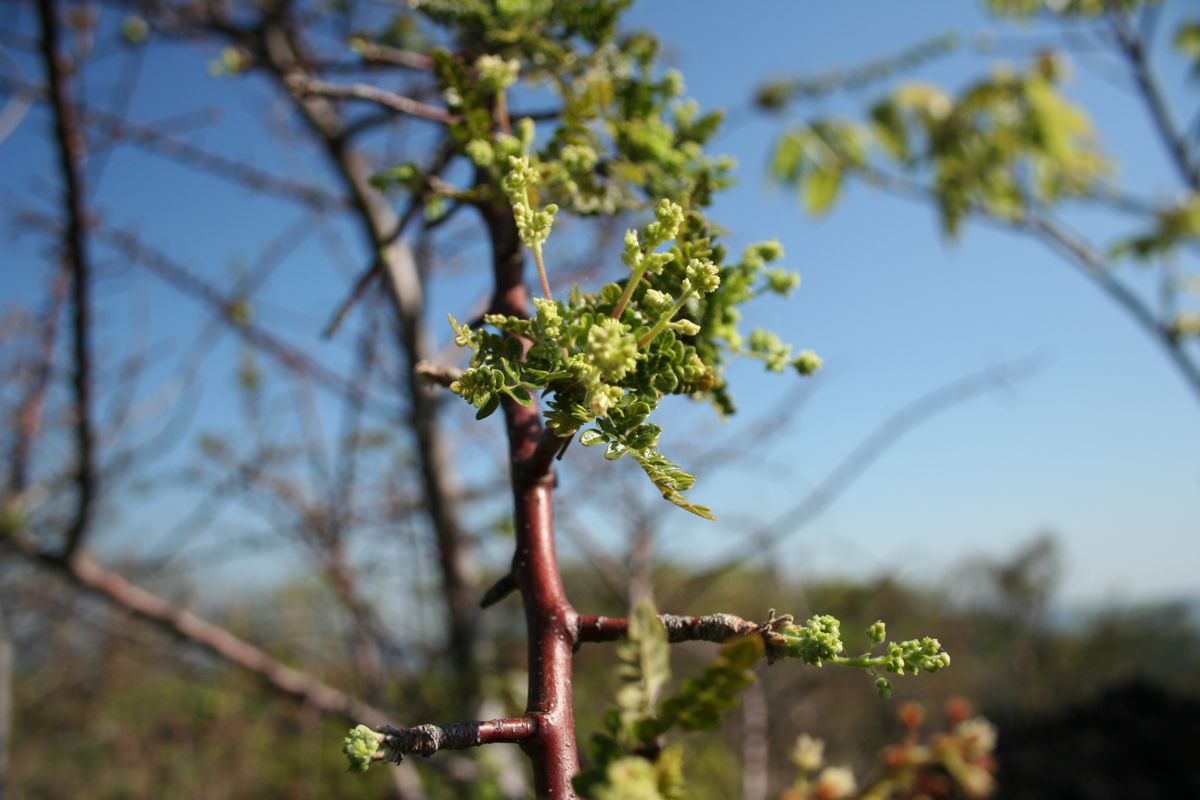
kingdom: Plantae
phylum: Tracheophyta
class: Magnoliopsida
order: Sapindales
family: Burseraceae
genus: Bursera
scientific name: Bursera bipinnata
